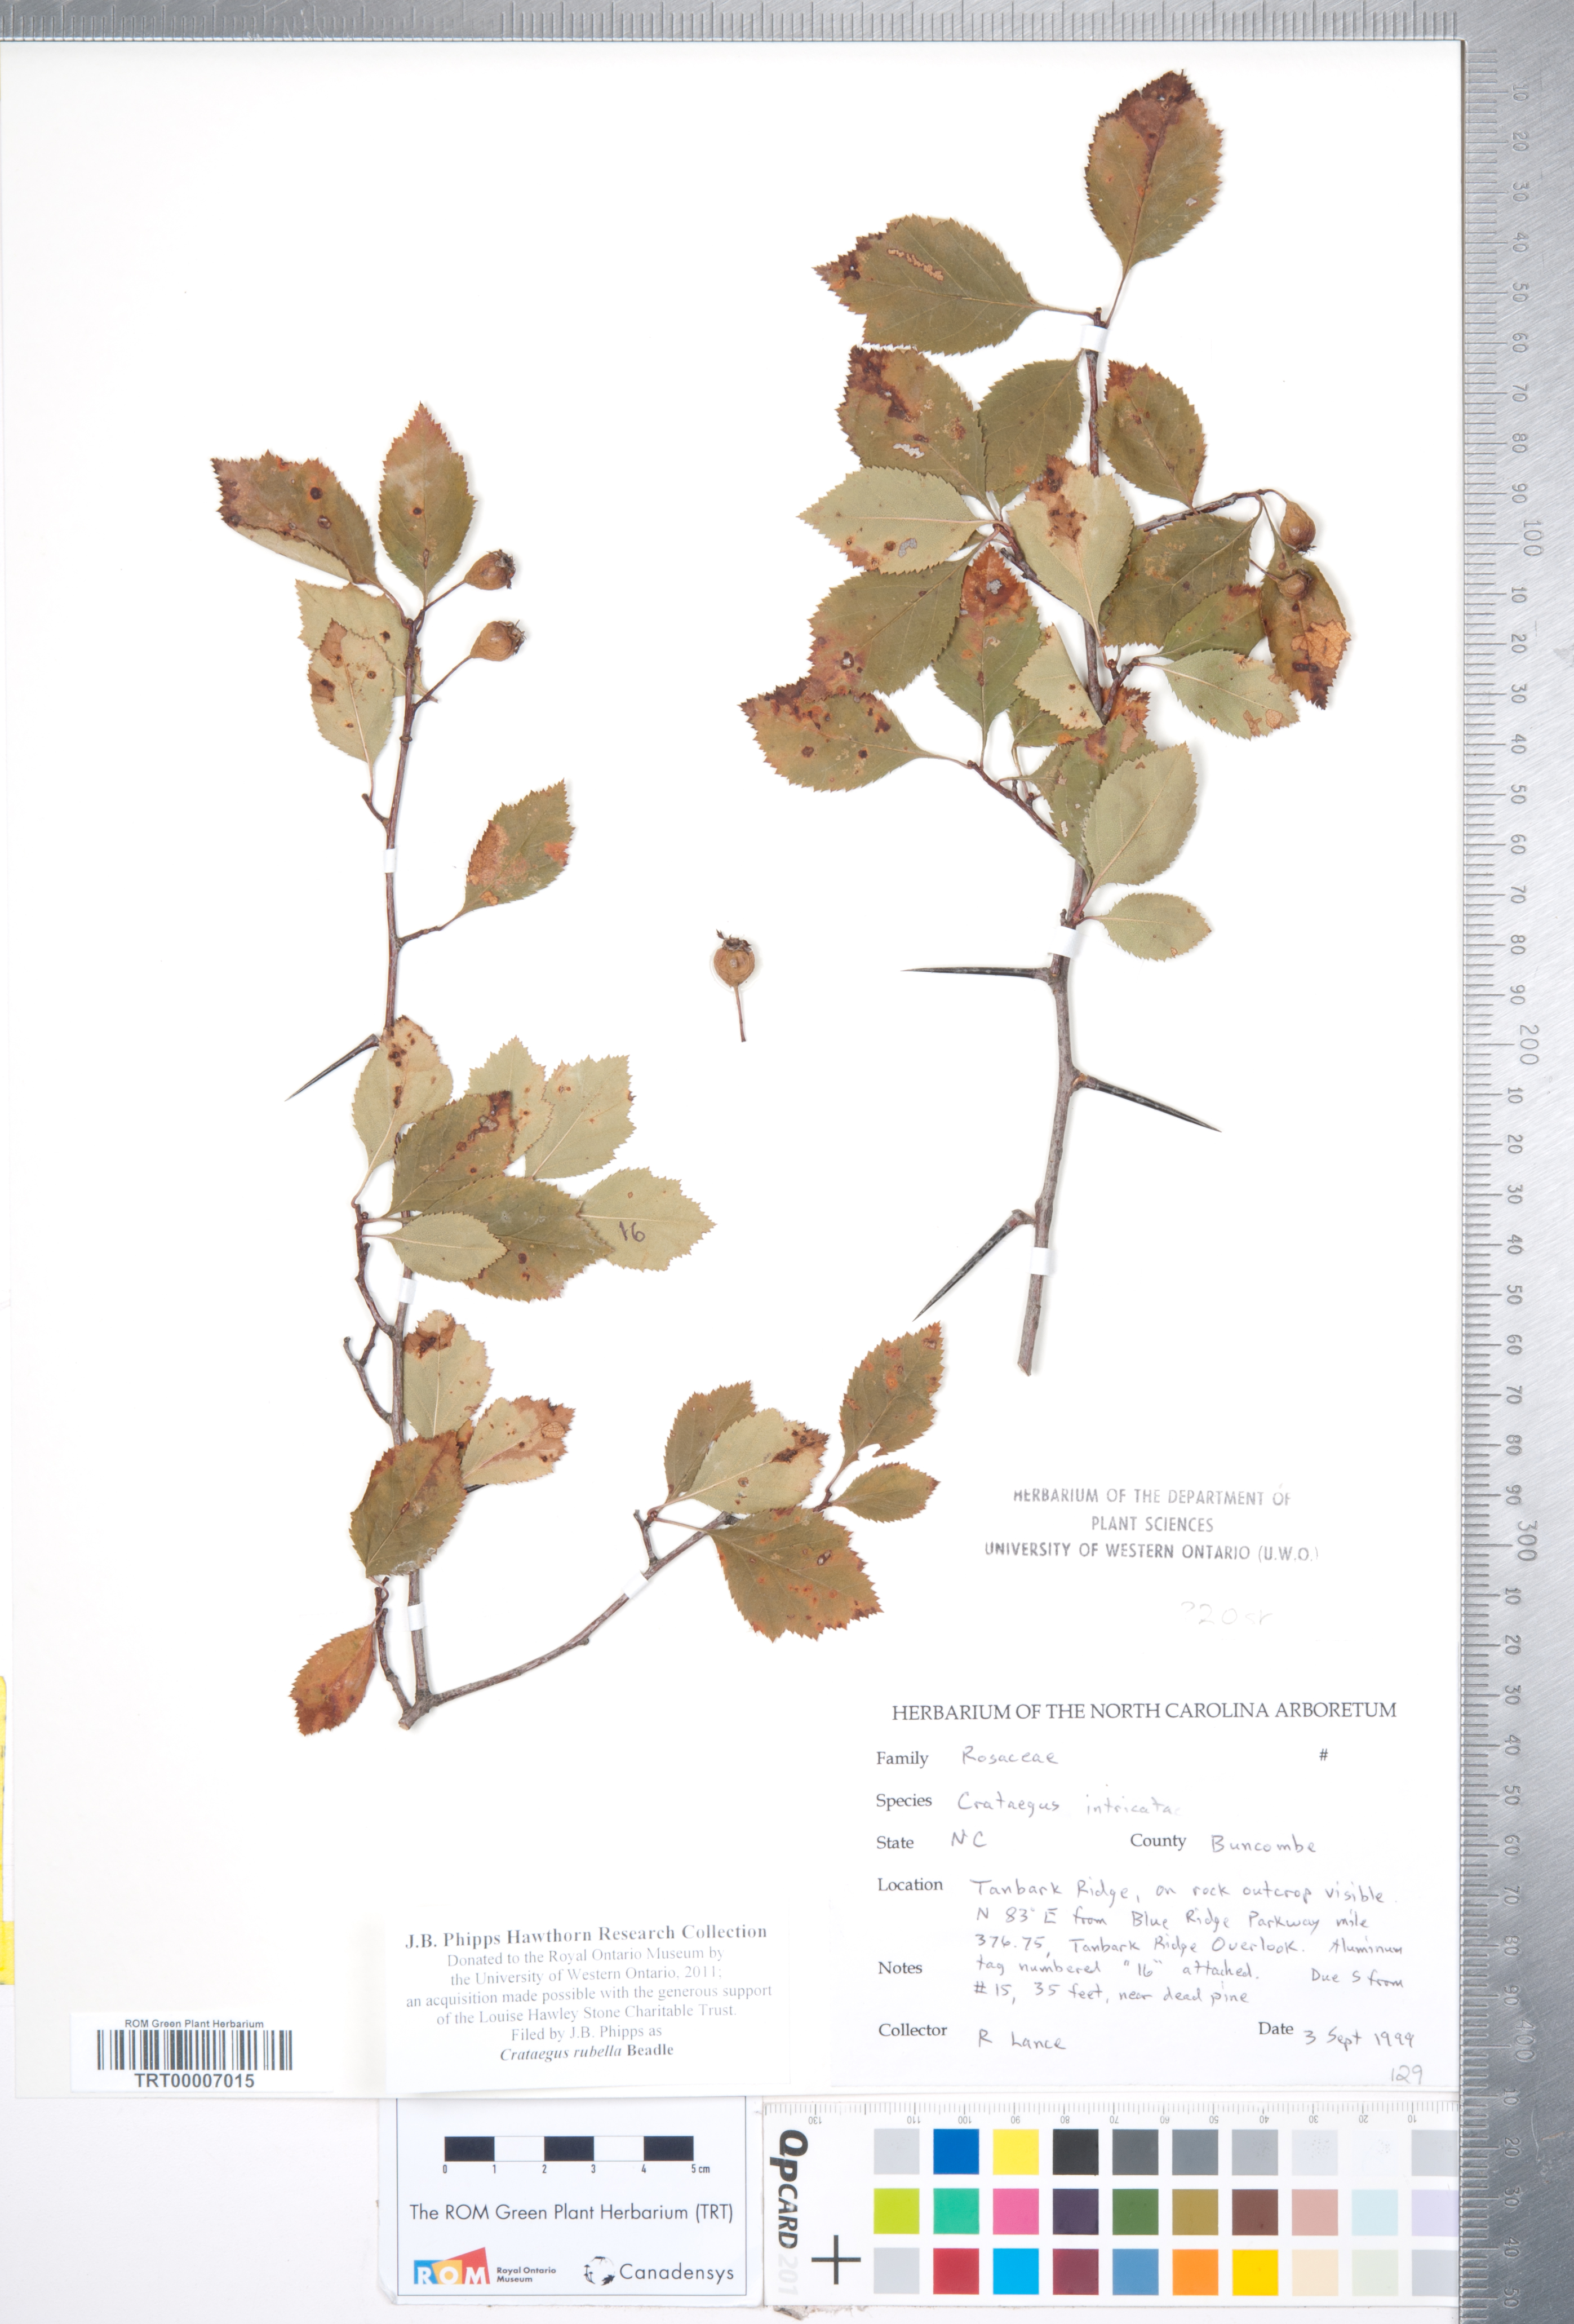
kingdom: Plantae
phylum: Tracheophyta
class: Magnoliopsida
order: Rosales
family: Rosaceae
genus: Crataegus
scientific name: Crataegus intricata
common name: Biltmore hawthorn
